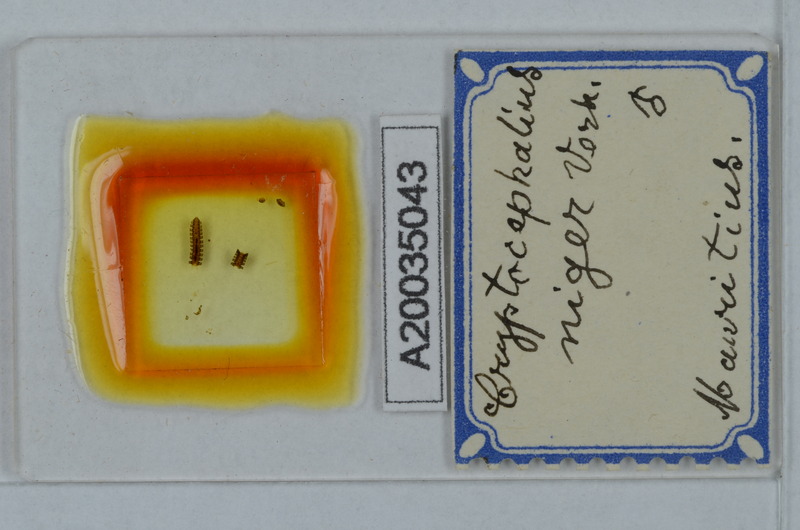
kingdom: Animalia
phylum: Arthropoda
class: Diplopoda
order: Polydesmida
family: Cryptodesmidae
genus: Cryptodesmus
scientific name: Cryptodesmus
